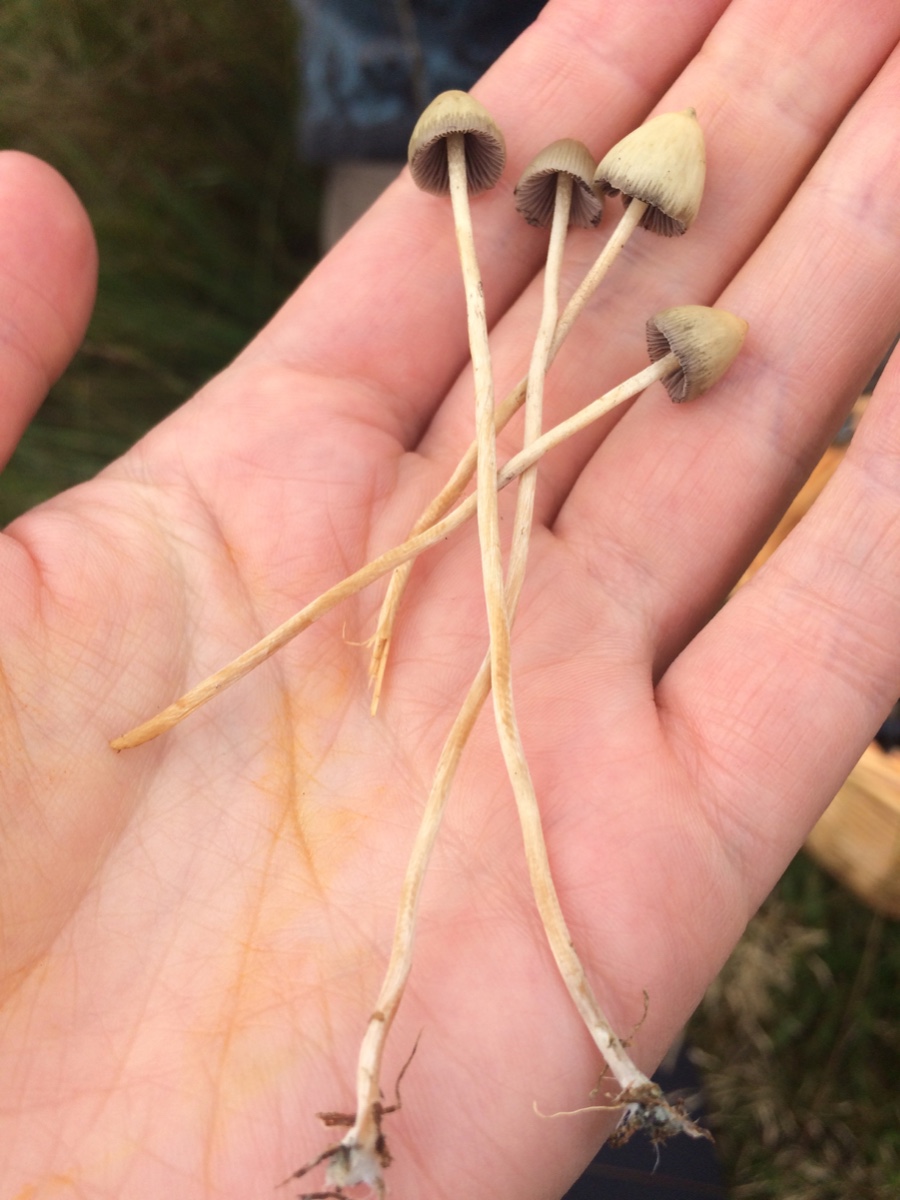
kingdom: Fungi
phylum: Basidiomycota
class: Agaricomycetes
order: Agaricales
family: Hymenogastraceae
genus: Psilocybe
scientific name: Psilocybe semilanceata
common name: spids nøgenhat
